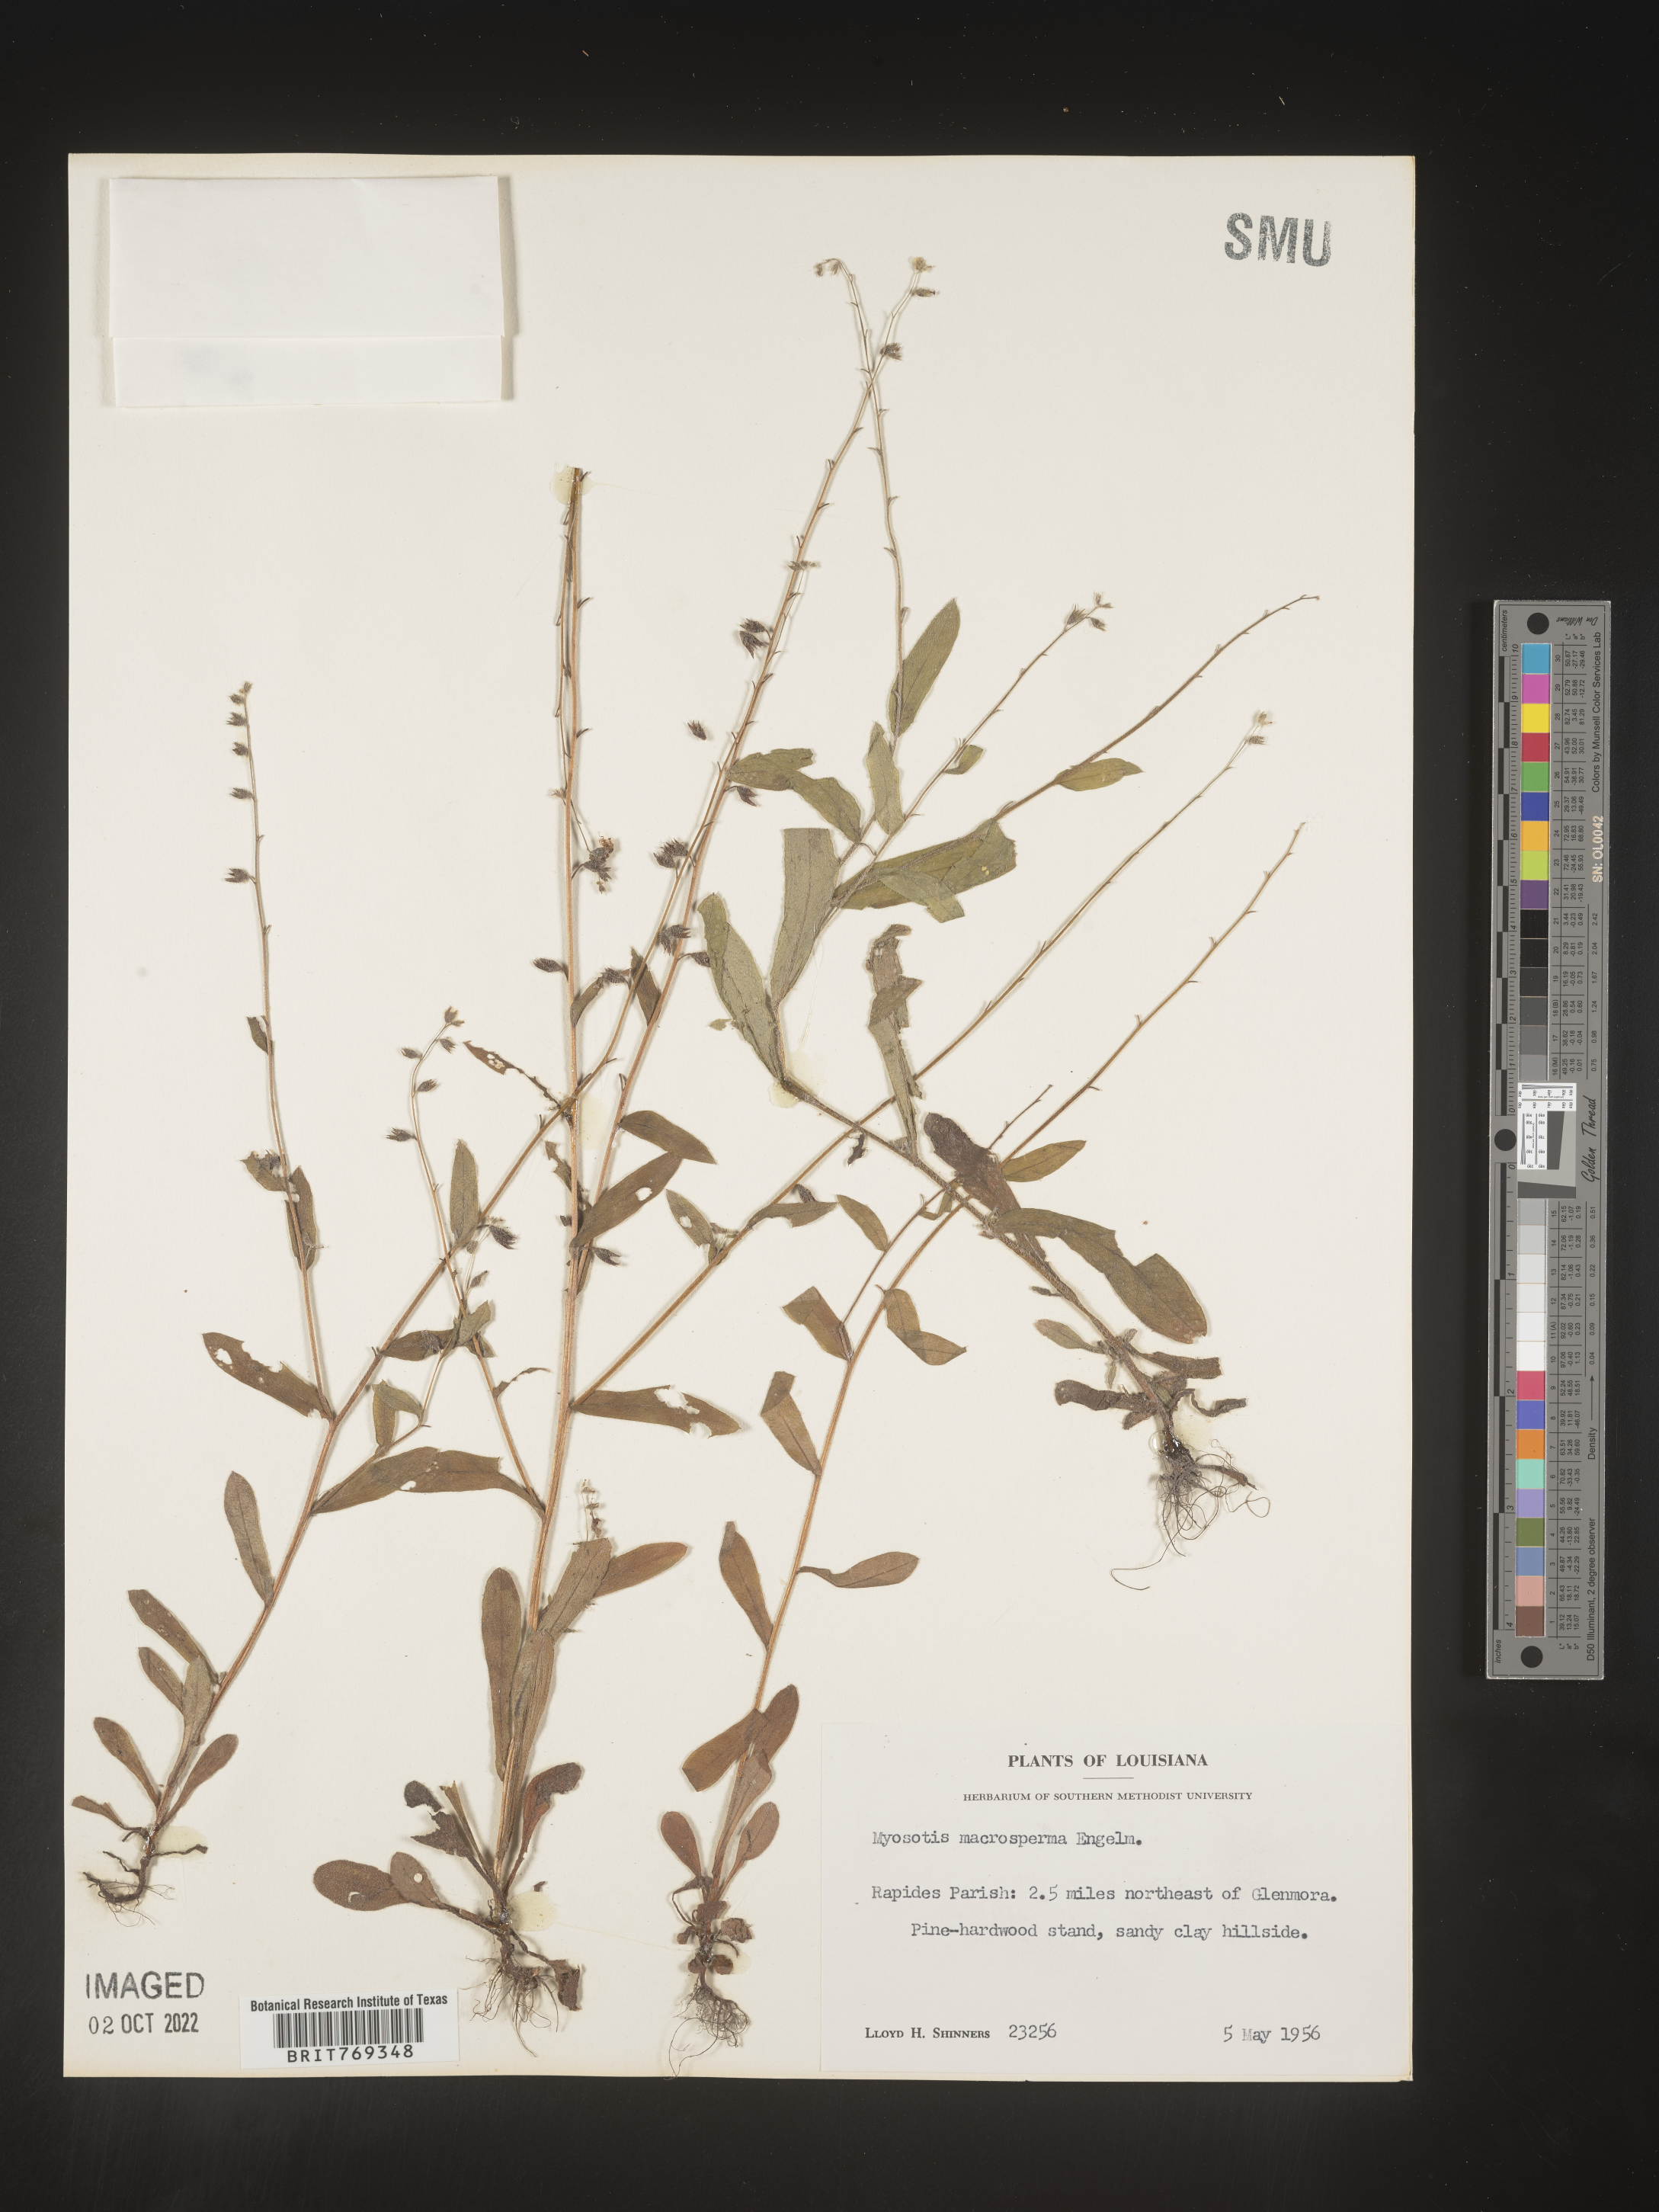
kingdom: Plantae
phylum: Tracheophyta
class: Magnoliopsida
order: Boraginales
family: Boraginaceae
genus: Myosotis
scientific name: Myosotis macrosperma
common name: Large-seed forget-me-not
